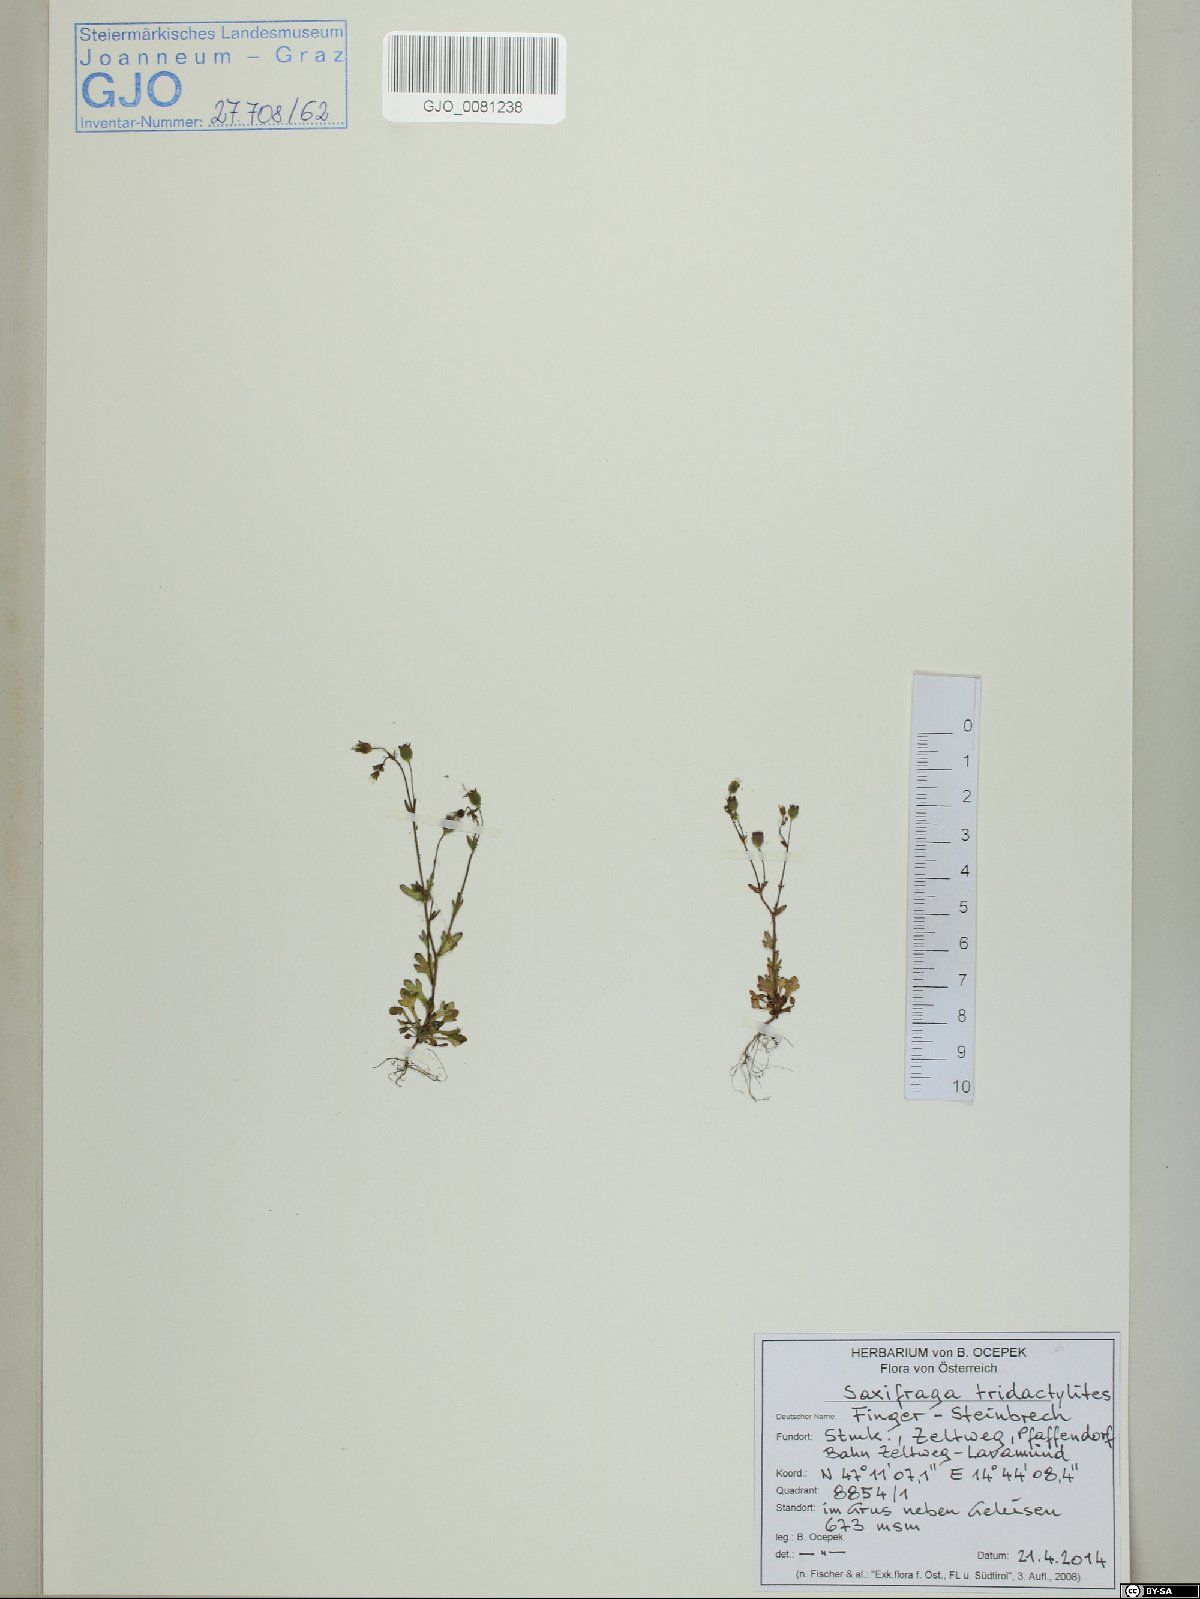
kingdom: Plantae
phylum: Tracheophyta
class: Magnoliopsida
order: Saxifragales
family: Saxifragaceae
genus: Saxifraga
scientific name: Saxifraga tridactylites
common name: Rue-leaved saxifrage
